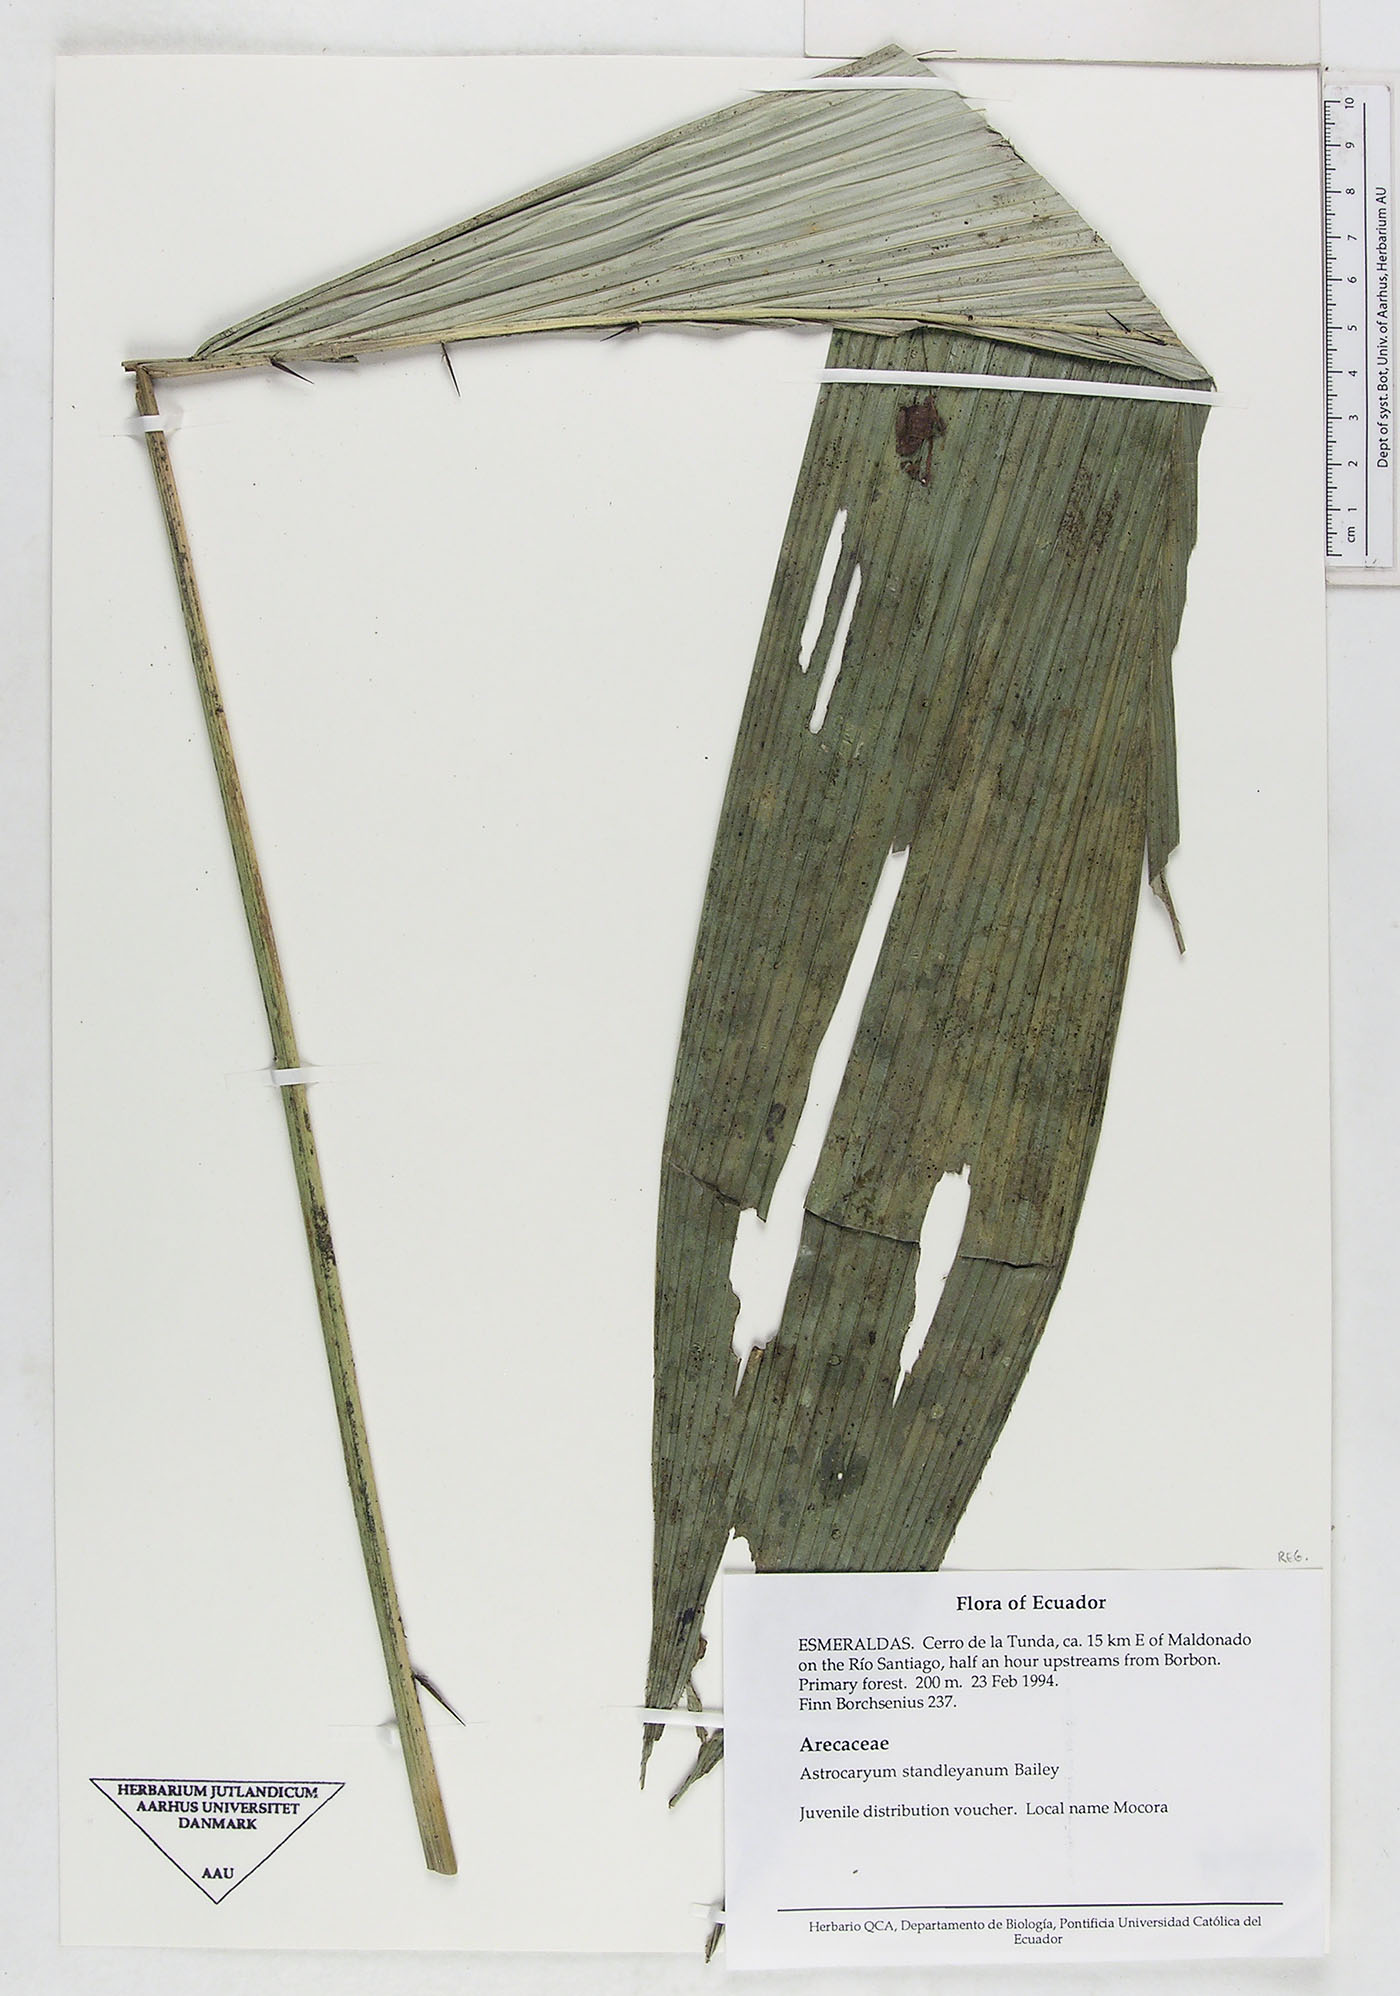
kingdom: Plantae
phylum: Tracheophyta
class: Liliopsida
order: Arecales
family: Arecaceae
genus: Astrocaryum
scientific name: Astrocaryum standleyanum
